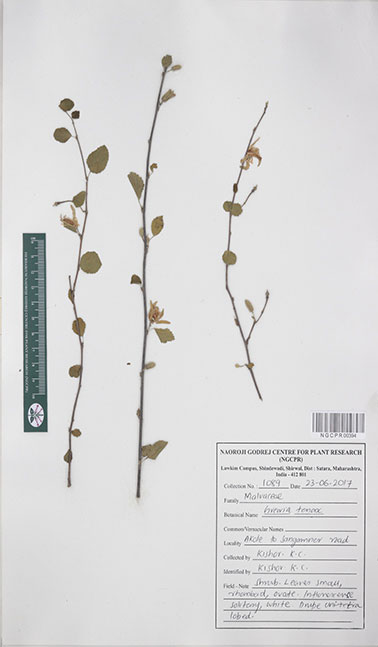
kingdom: Plantae
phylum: Tracheophyta
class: Magnoliopsida
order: Malvales
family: Malvaceae
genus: Grewia
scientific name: Grewia tenax
